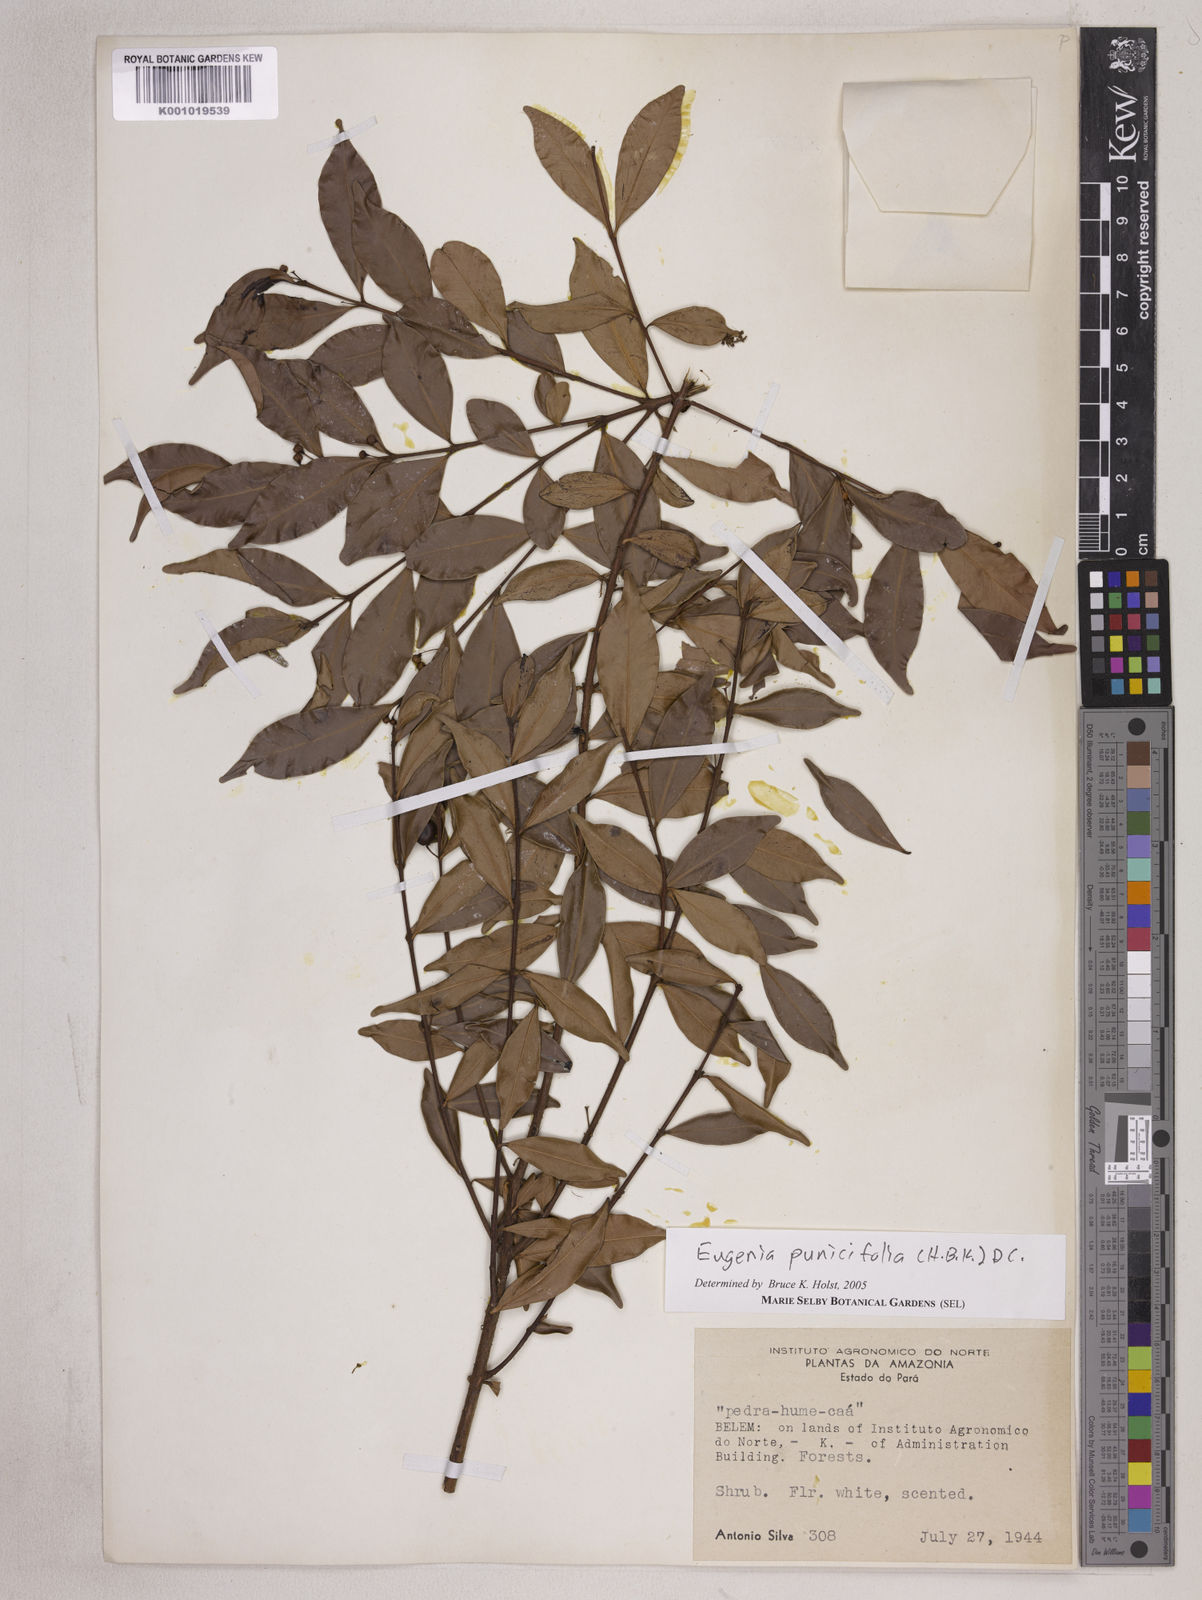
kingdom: Plantae
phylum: Tracheophyta
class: Magnoliopsida
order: Myrtales
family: Myrtaceae
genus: Eugenia
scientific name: Eugenia punicifolia
